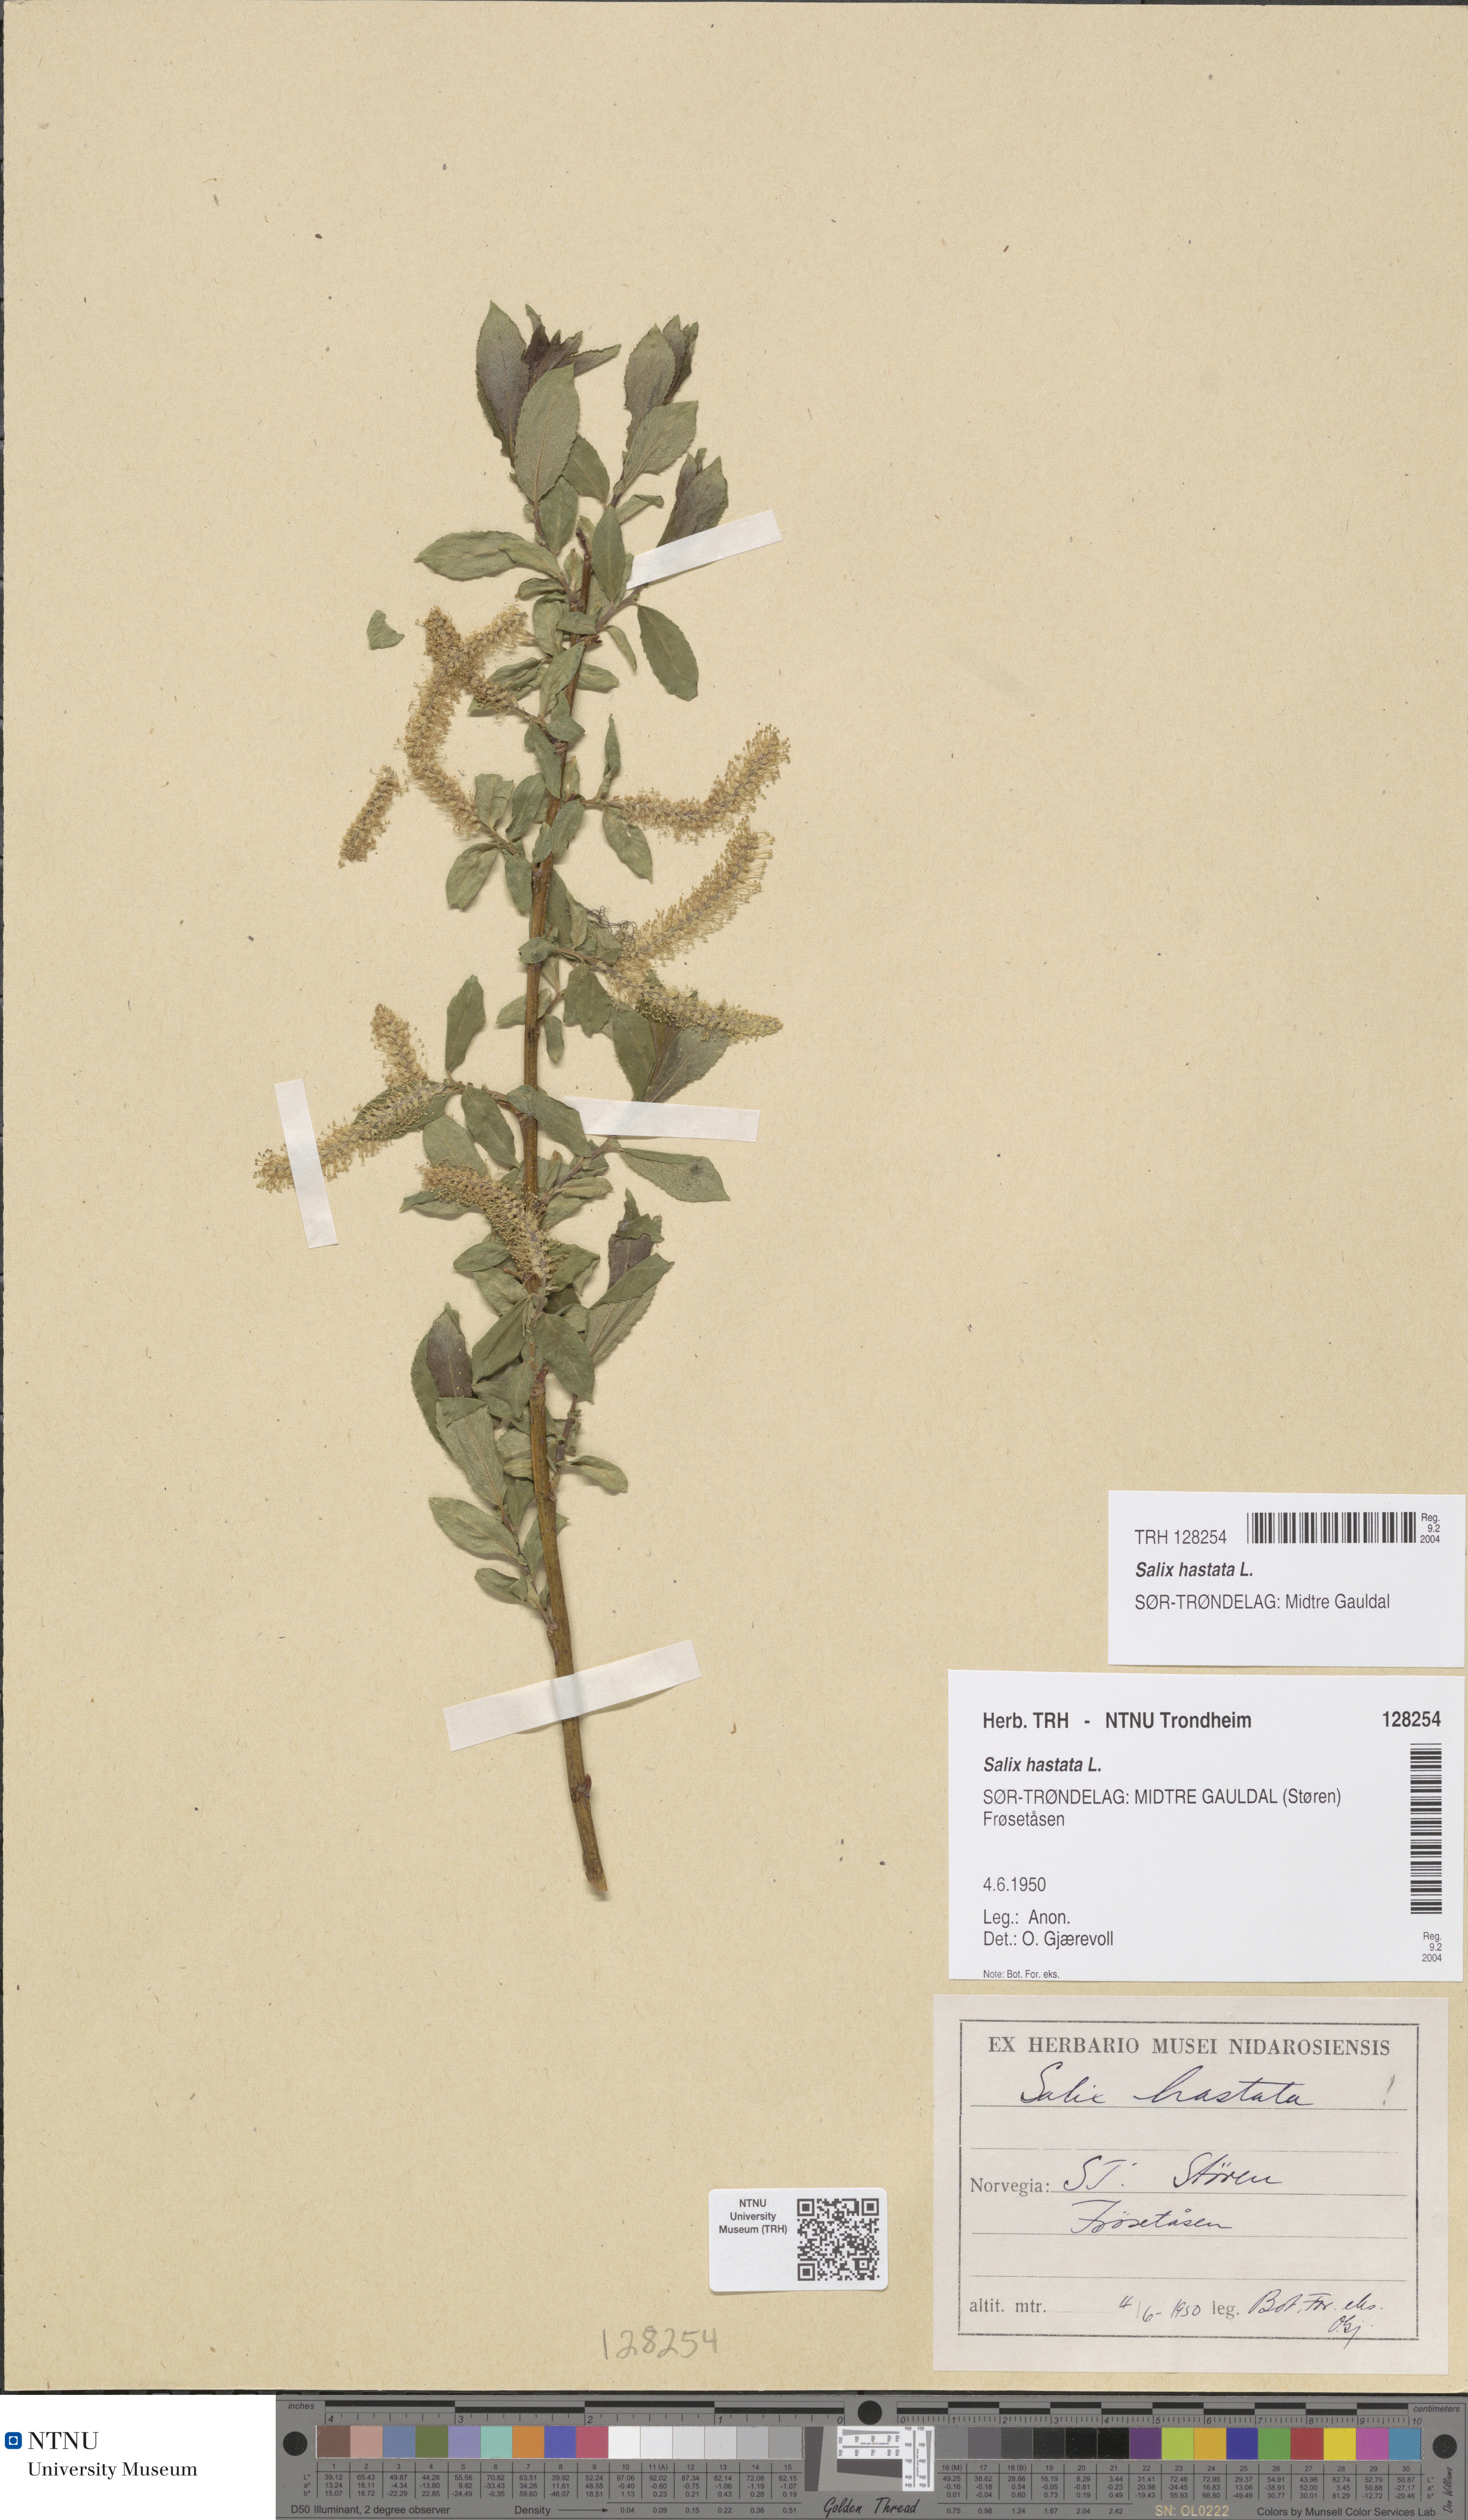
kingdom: Plantae
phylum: Tracheophyta
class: Magnoliopsida
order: Malpighiales
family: Salicaceae
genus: Salix
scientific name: Salix hastata
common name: Halberd willow
